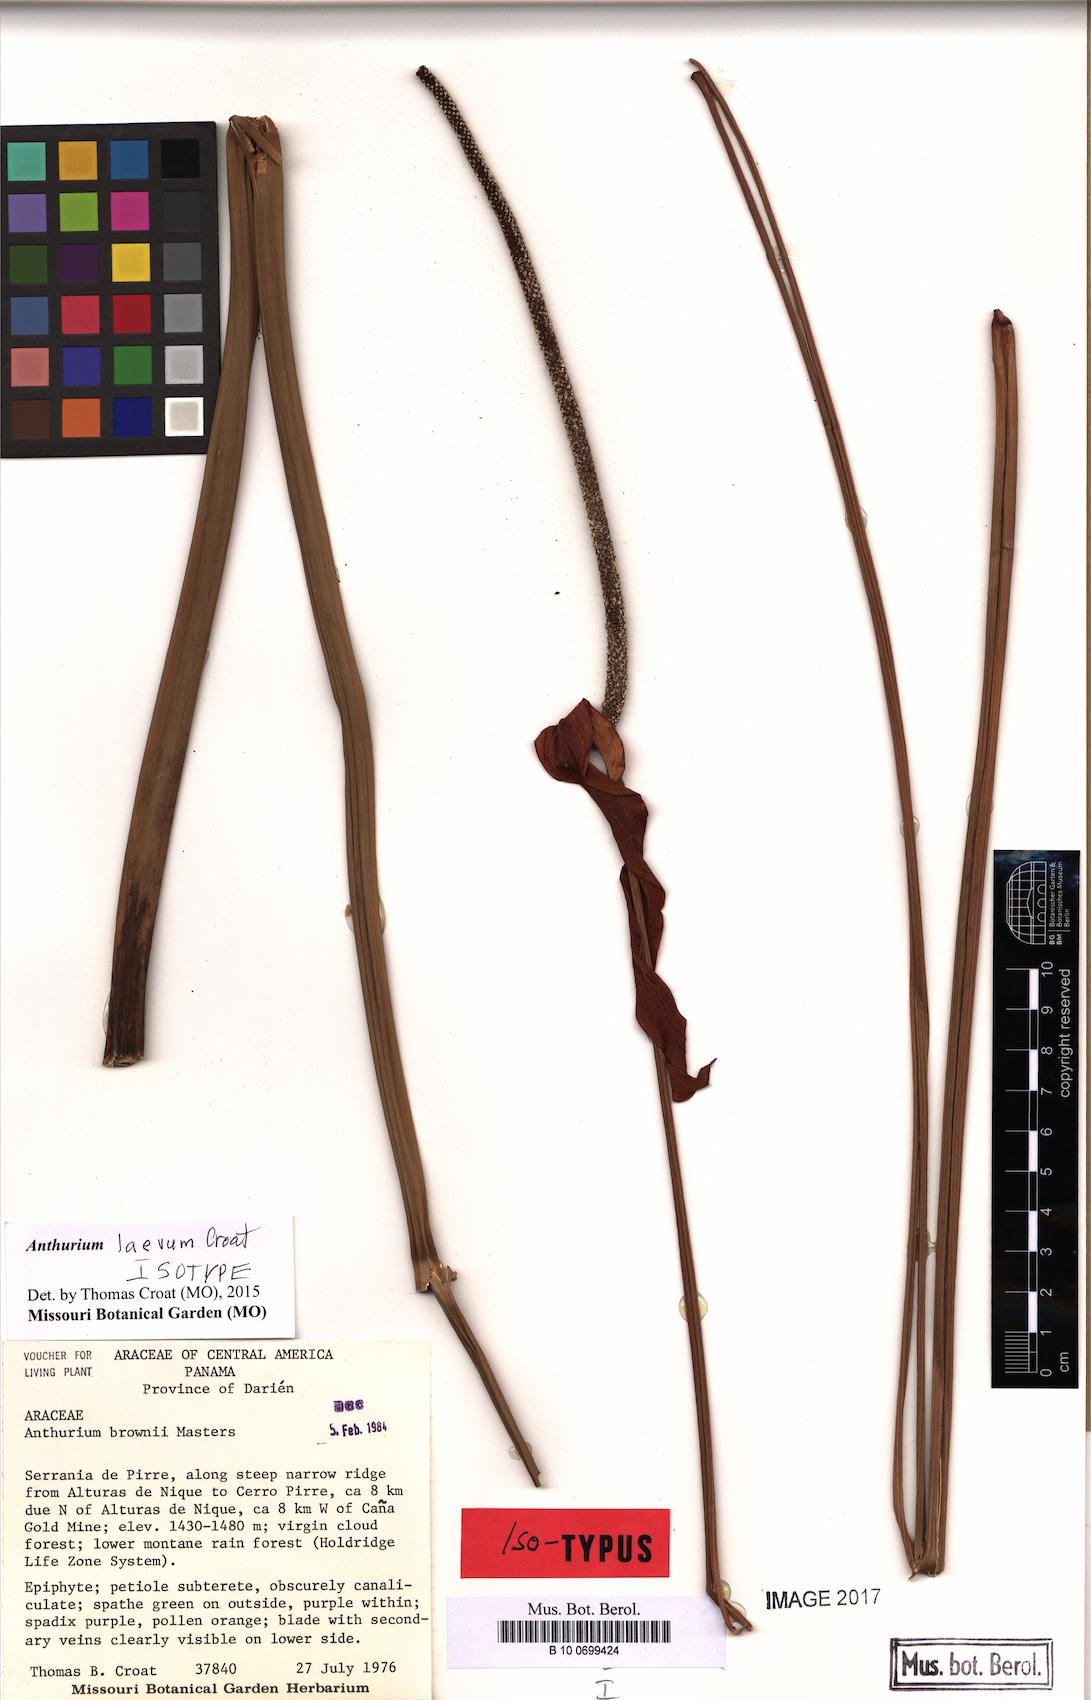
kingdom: Plantae
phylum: Tracheophyta
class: Liliopsida
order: Alismatales
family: Araceae
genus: Anthurium
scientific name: Anthurium laevum
